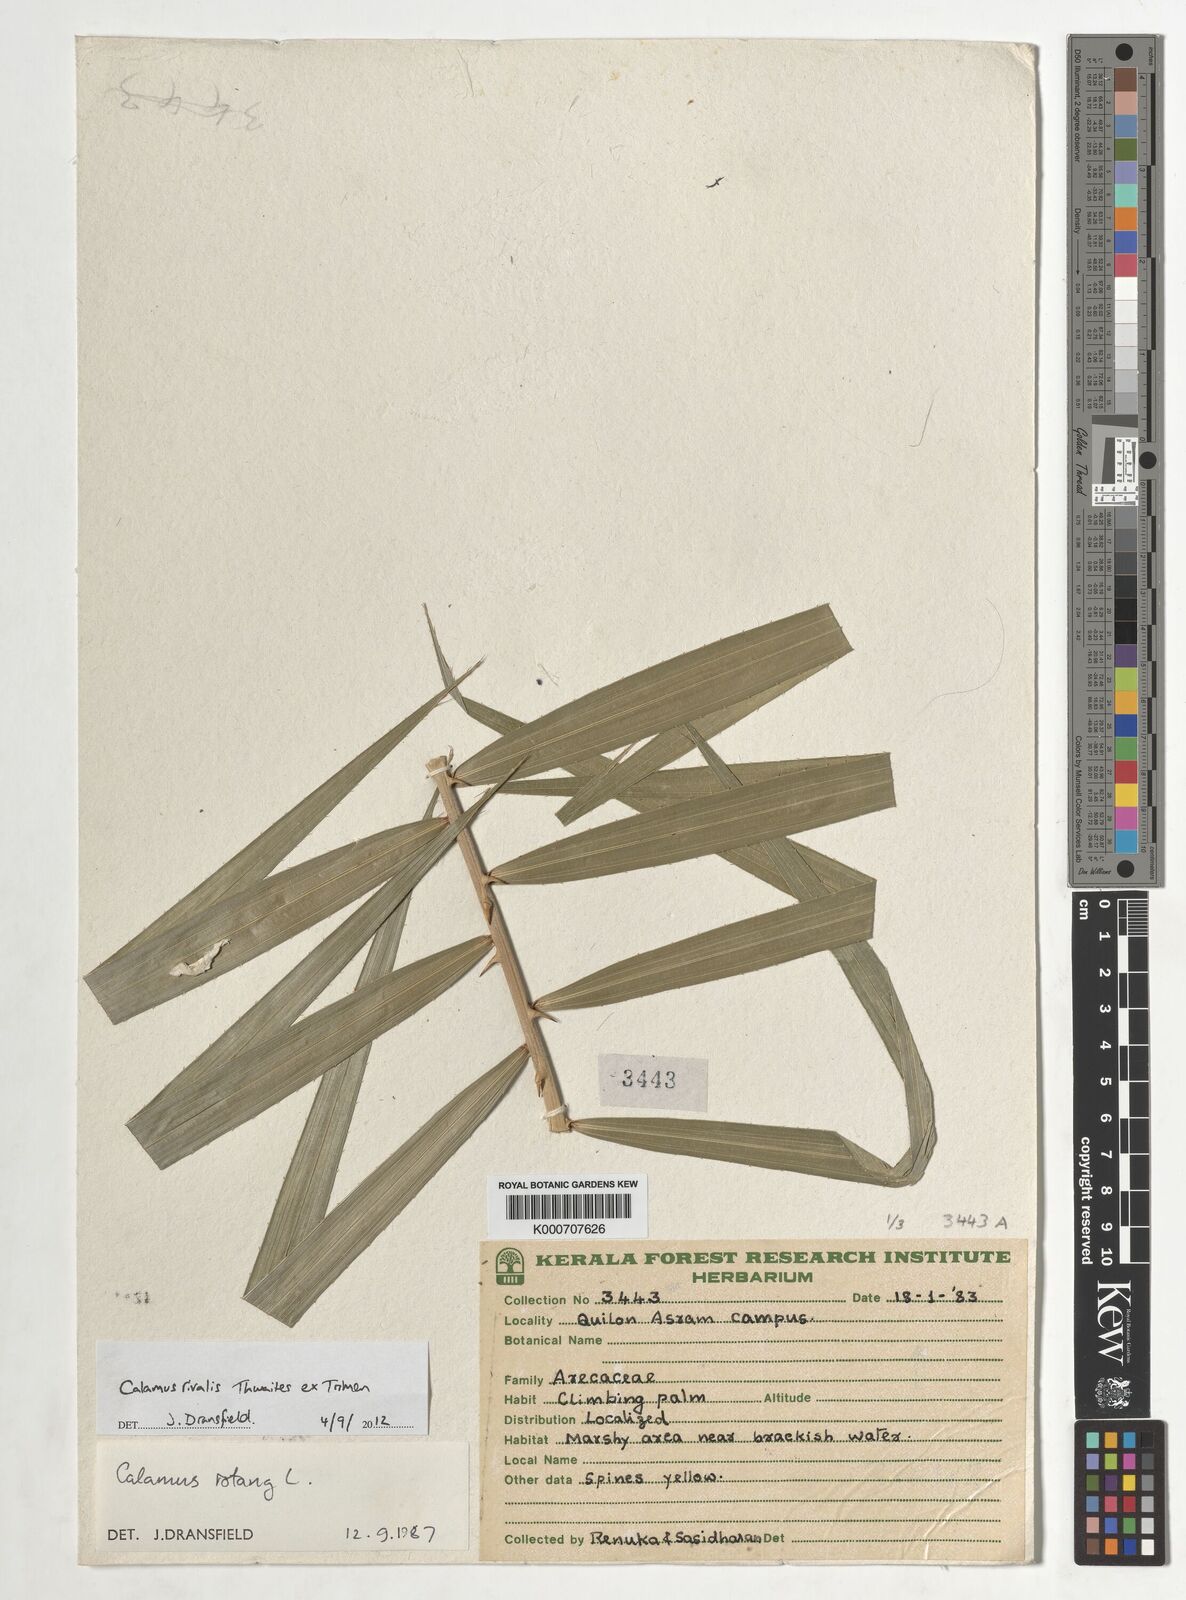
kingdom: Plantae
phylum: Tracheophyta
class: Liliopsida
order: Arecales
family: Arecaceae
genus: Calamus
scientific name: Calamus metzianus
